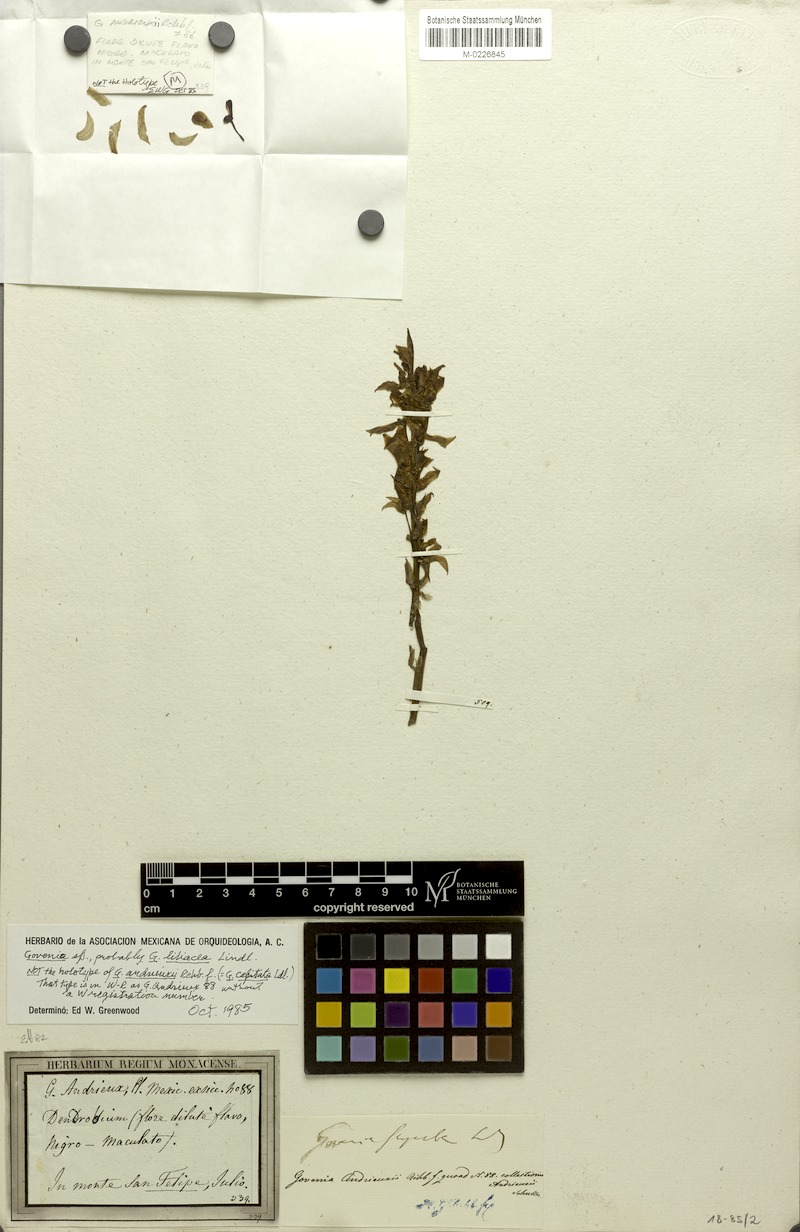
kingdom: Plantae
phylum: Tracheophyta
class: Liliopsida
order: Asparagales
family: Orchidaceae
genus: Govenia
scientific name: Govenia utriculata
